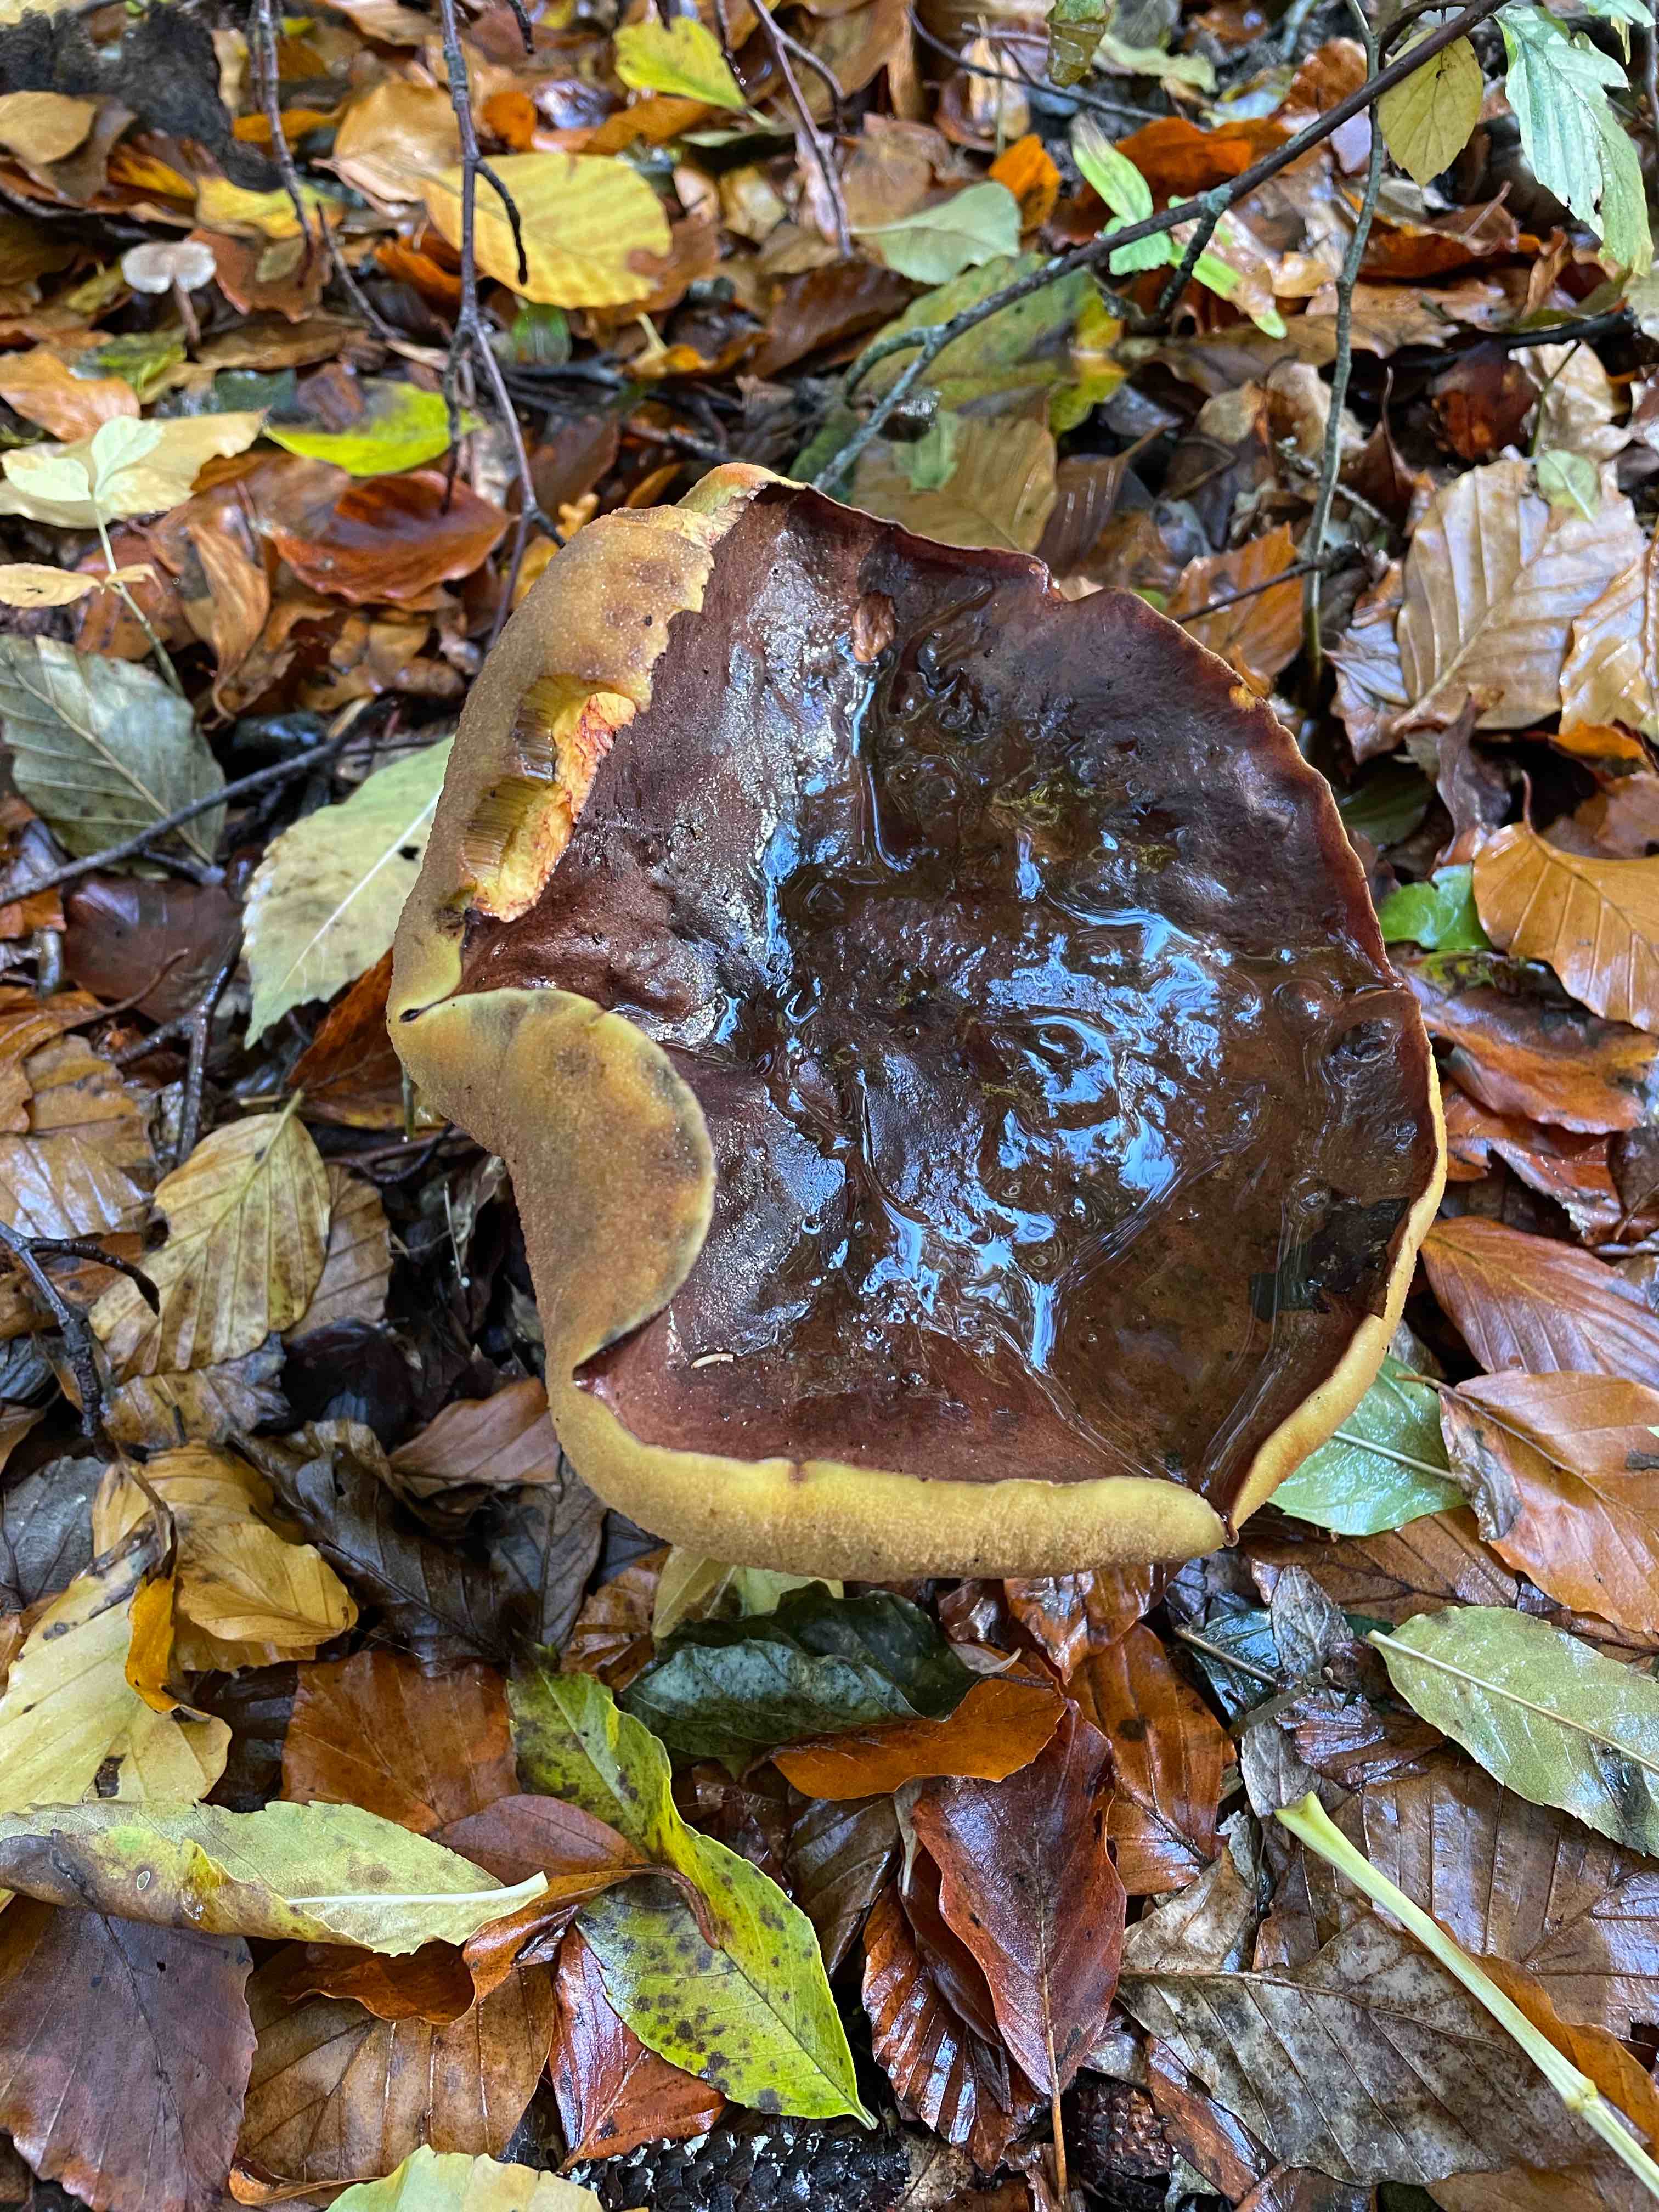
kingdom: Fungi
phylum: Basidiomycota
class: Agaricomycetes
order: Boletales
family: Boletaceae
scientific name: Boletaceae
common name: rørhatfamilien
